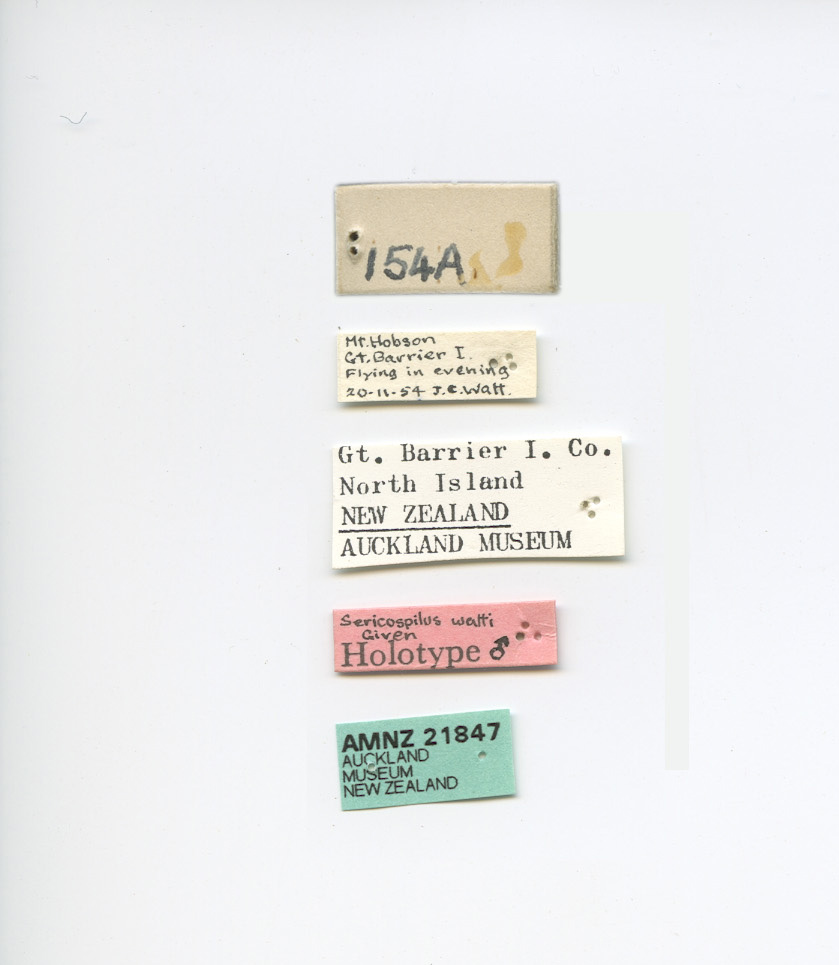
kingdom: Animalia
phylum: Arthropoda
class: Insecta
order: Coleoptera
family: Scarabaeidae
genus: Sericospilus
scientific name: Sericospilus watti
